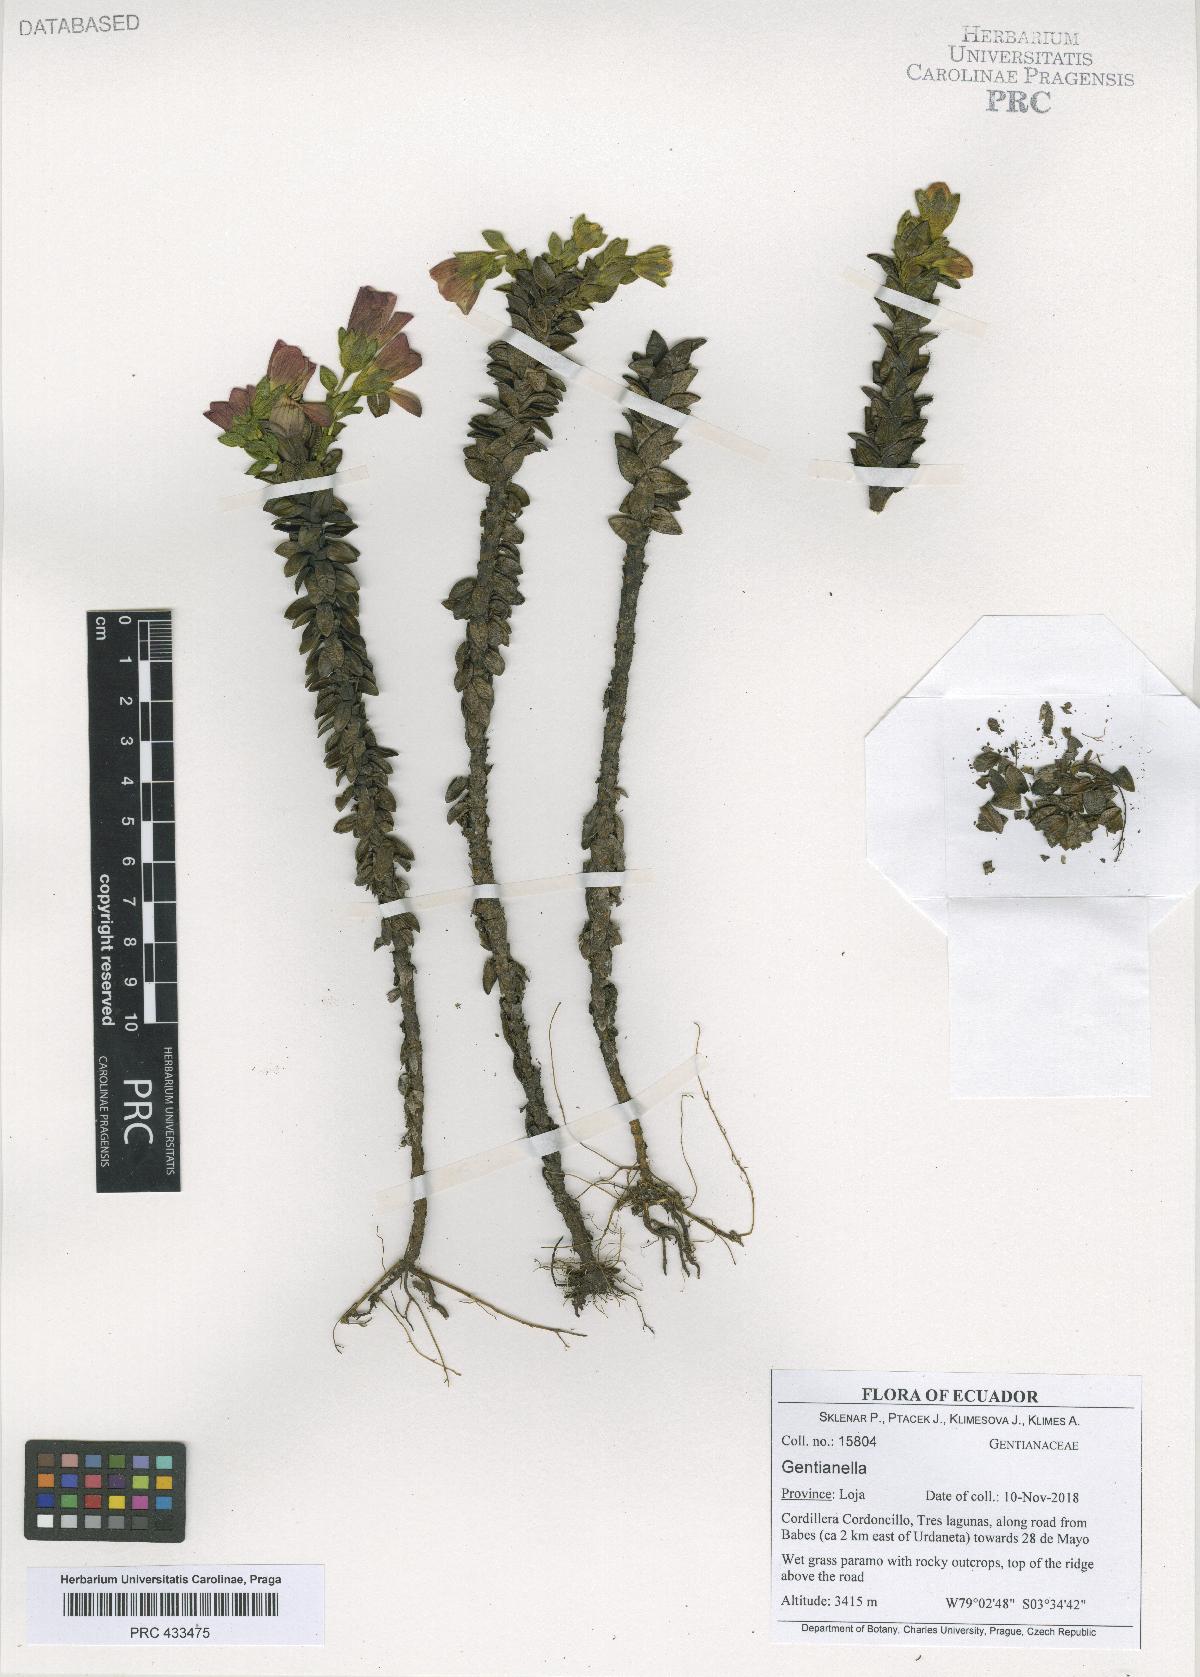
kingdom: Plantae
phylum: Tracheophyta
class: Magnoliopsida
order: Gentianales
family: Gentianaceae
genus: Gentianella
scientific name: Gentianella
